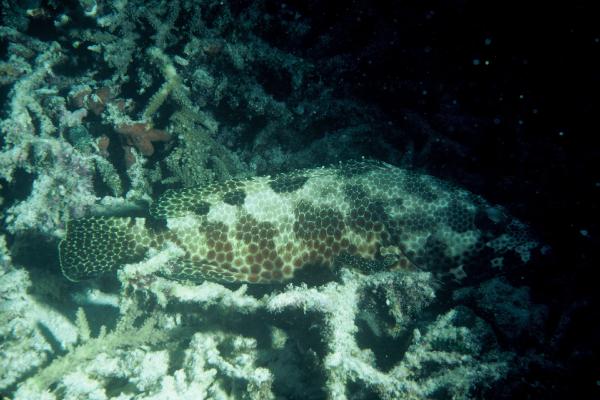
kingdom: Animalia
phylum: Chordata
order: Perciformes
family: Serranidae
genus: Epinephelus
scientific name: Epinephelus hexagonatus
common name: Hexagon grouper
